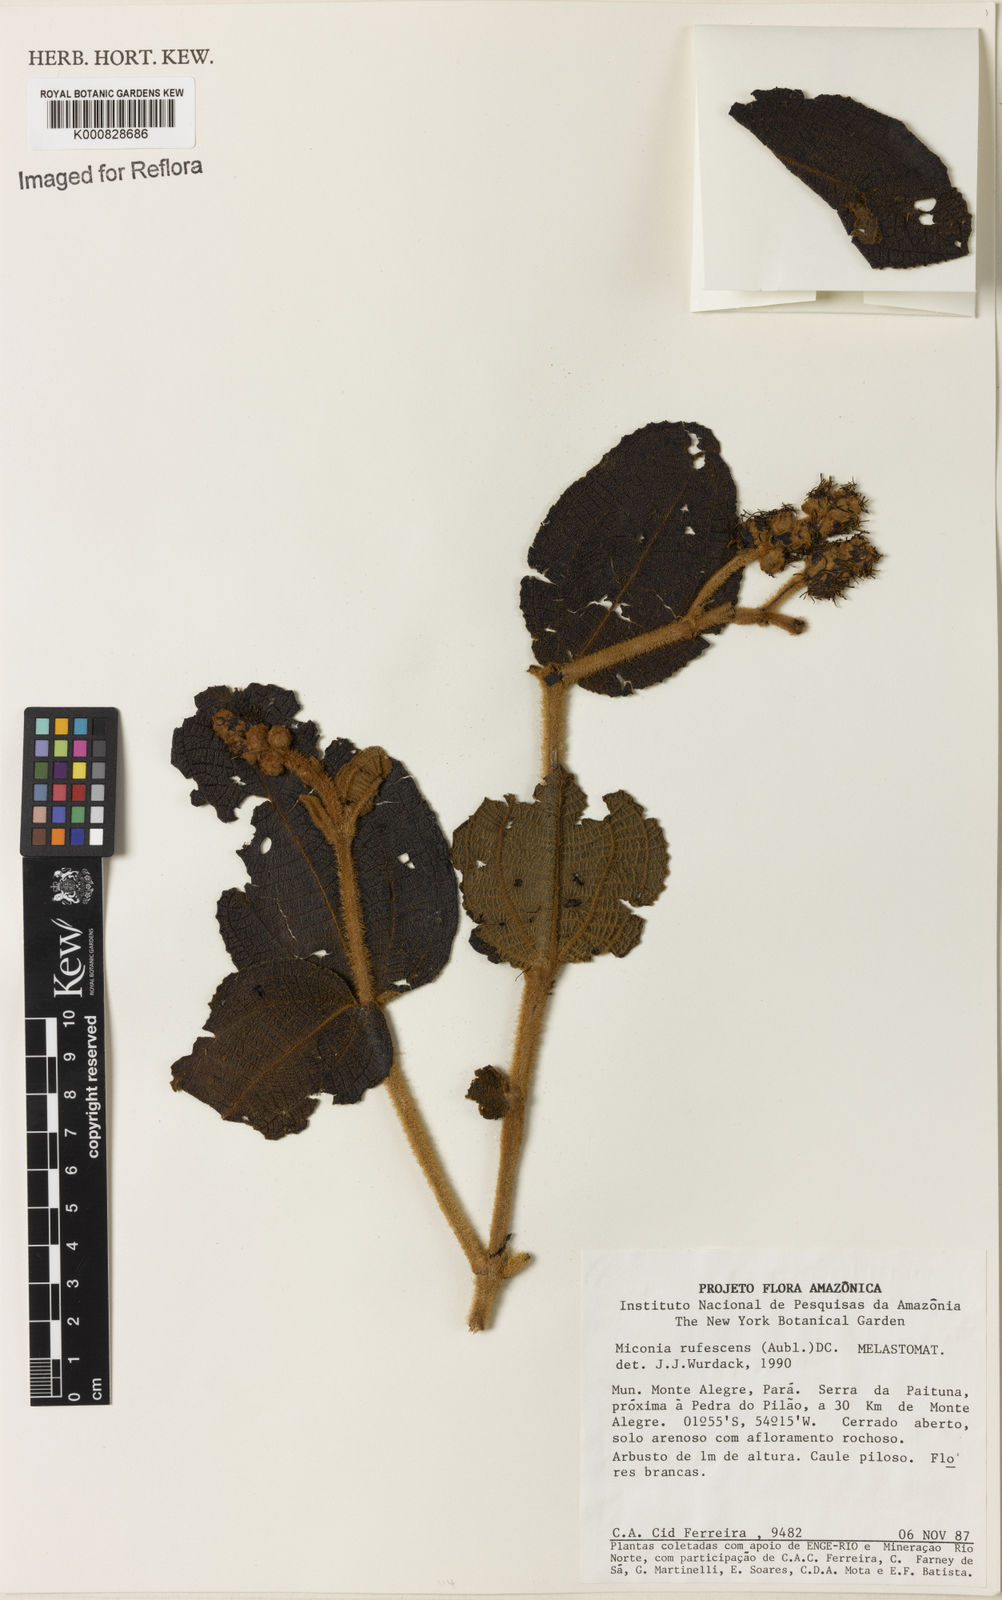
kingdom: Plantae
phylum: Tracheophyta
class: Magnoliopsida
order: Myrtales
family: Melastomataceae
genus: Miconia
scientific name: Miconia rufescens
